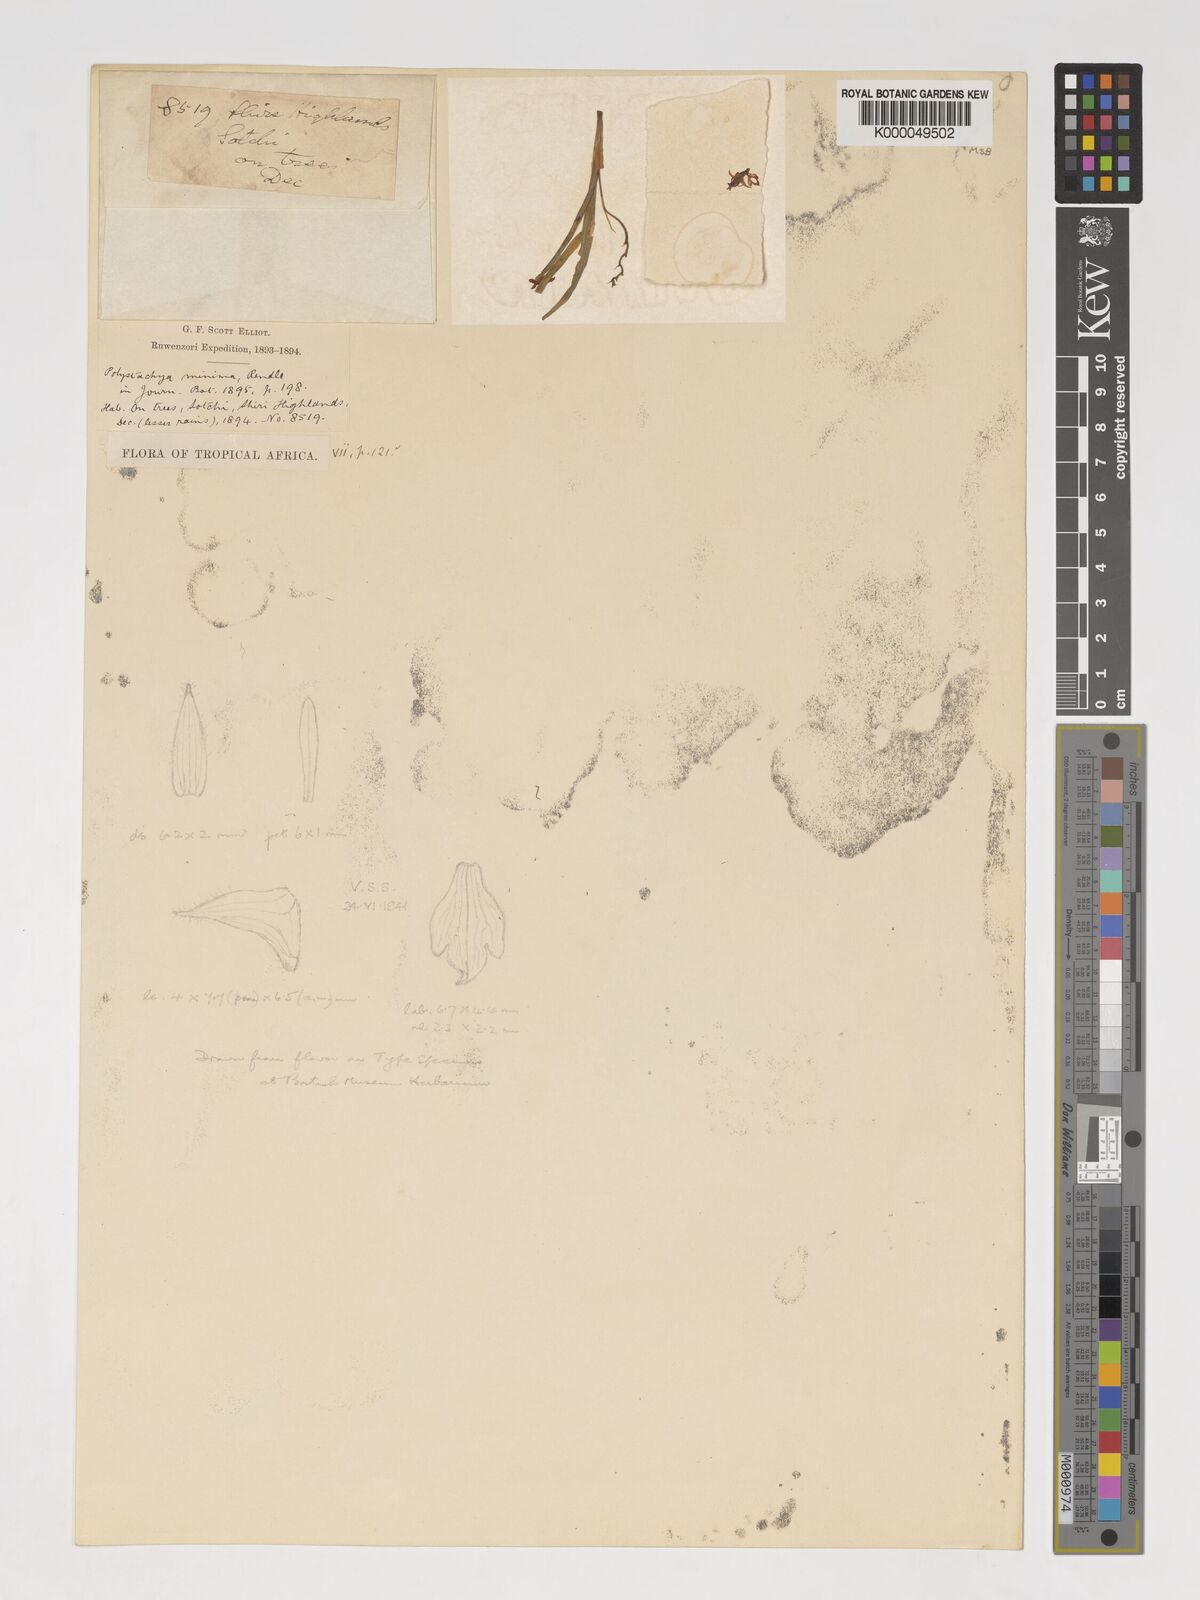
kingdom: Plantae
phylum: Tracheophyta
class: Liliopsida
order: Asparagales
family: Orchidaceae
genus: Polystachya
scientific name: Polystachya minima
